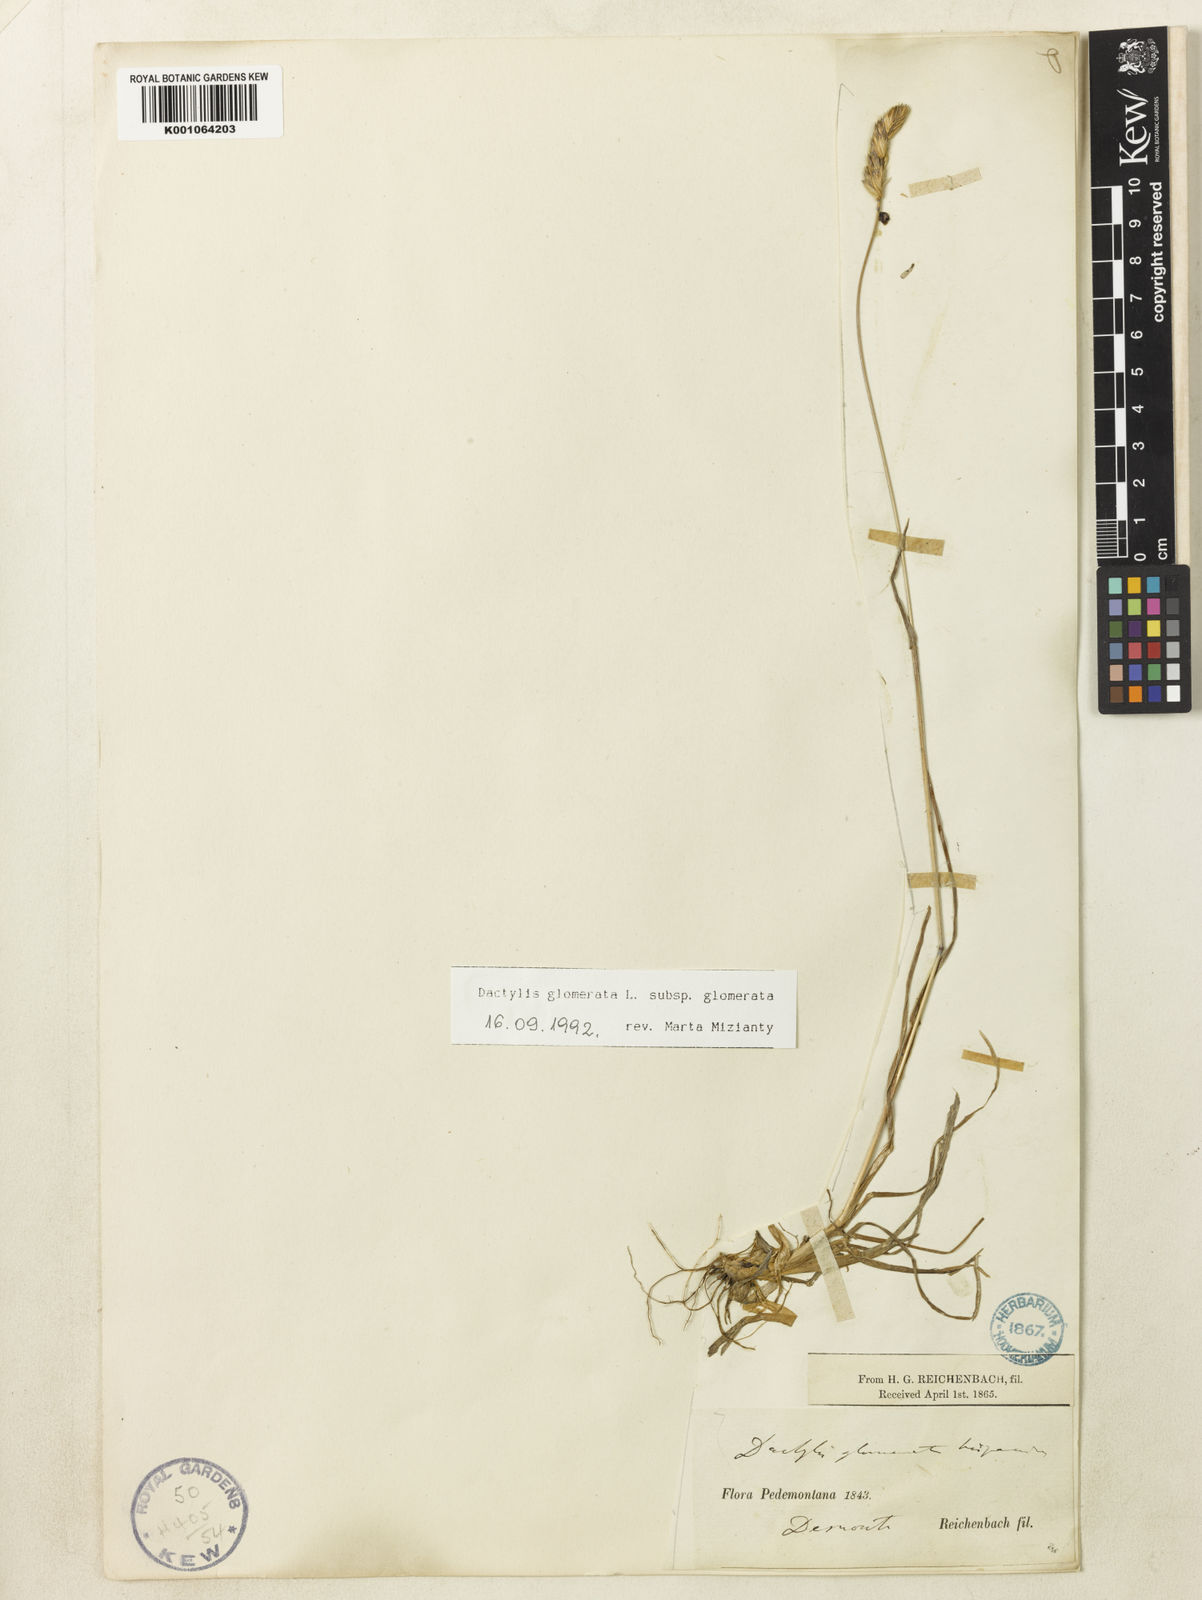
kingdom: Plantae
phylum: Tracheophyta
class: Liliopsida
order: Poales
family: Poaceae
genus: Dactylis
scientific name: Dactylis glomerata
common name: Orchardgrass
